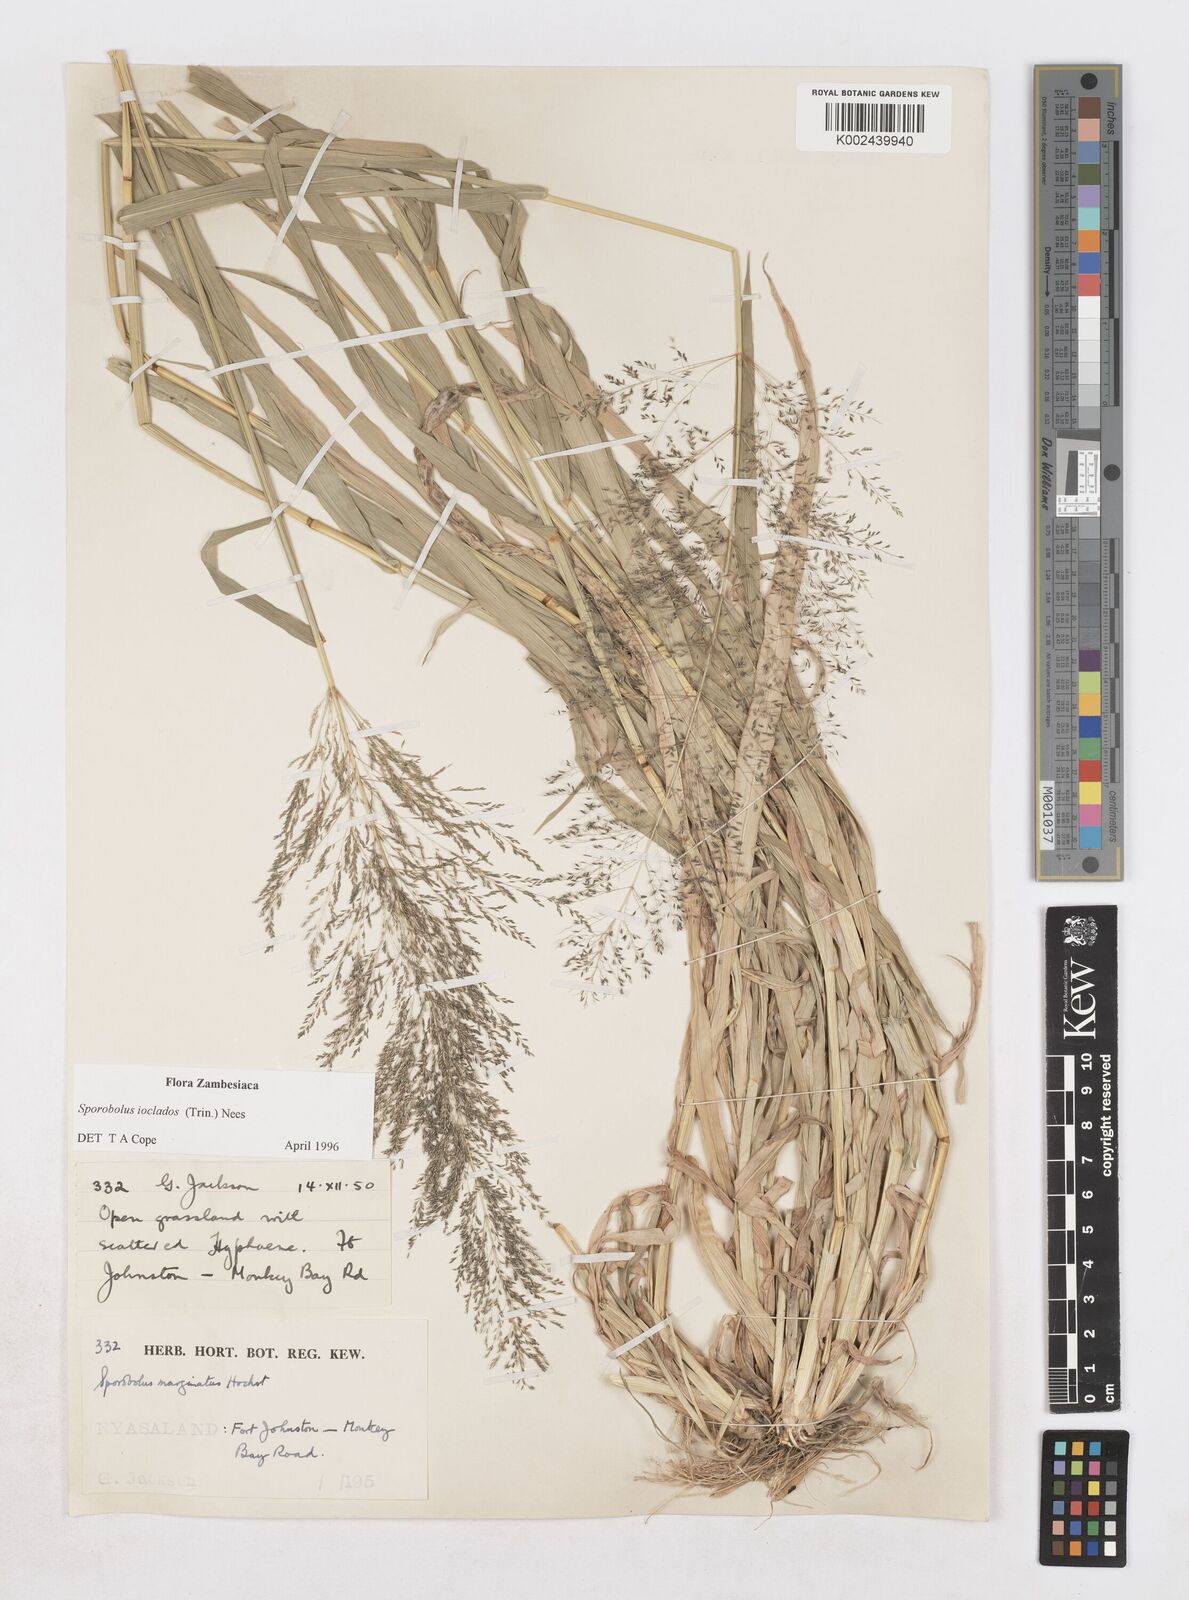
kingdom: Plantae
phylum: Tracheophyta
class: Liliopsida
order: Poales
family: Poaceae
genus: Sporobolus
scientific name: Sporobolus ioclados
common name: Pan dropseed
